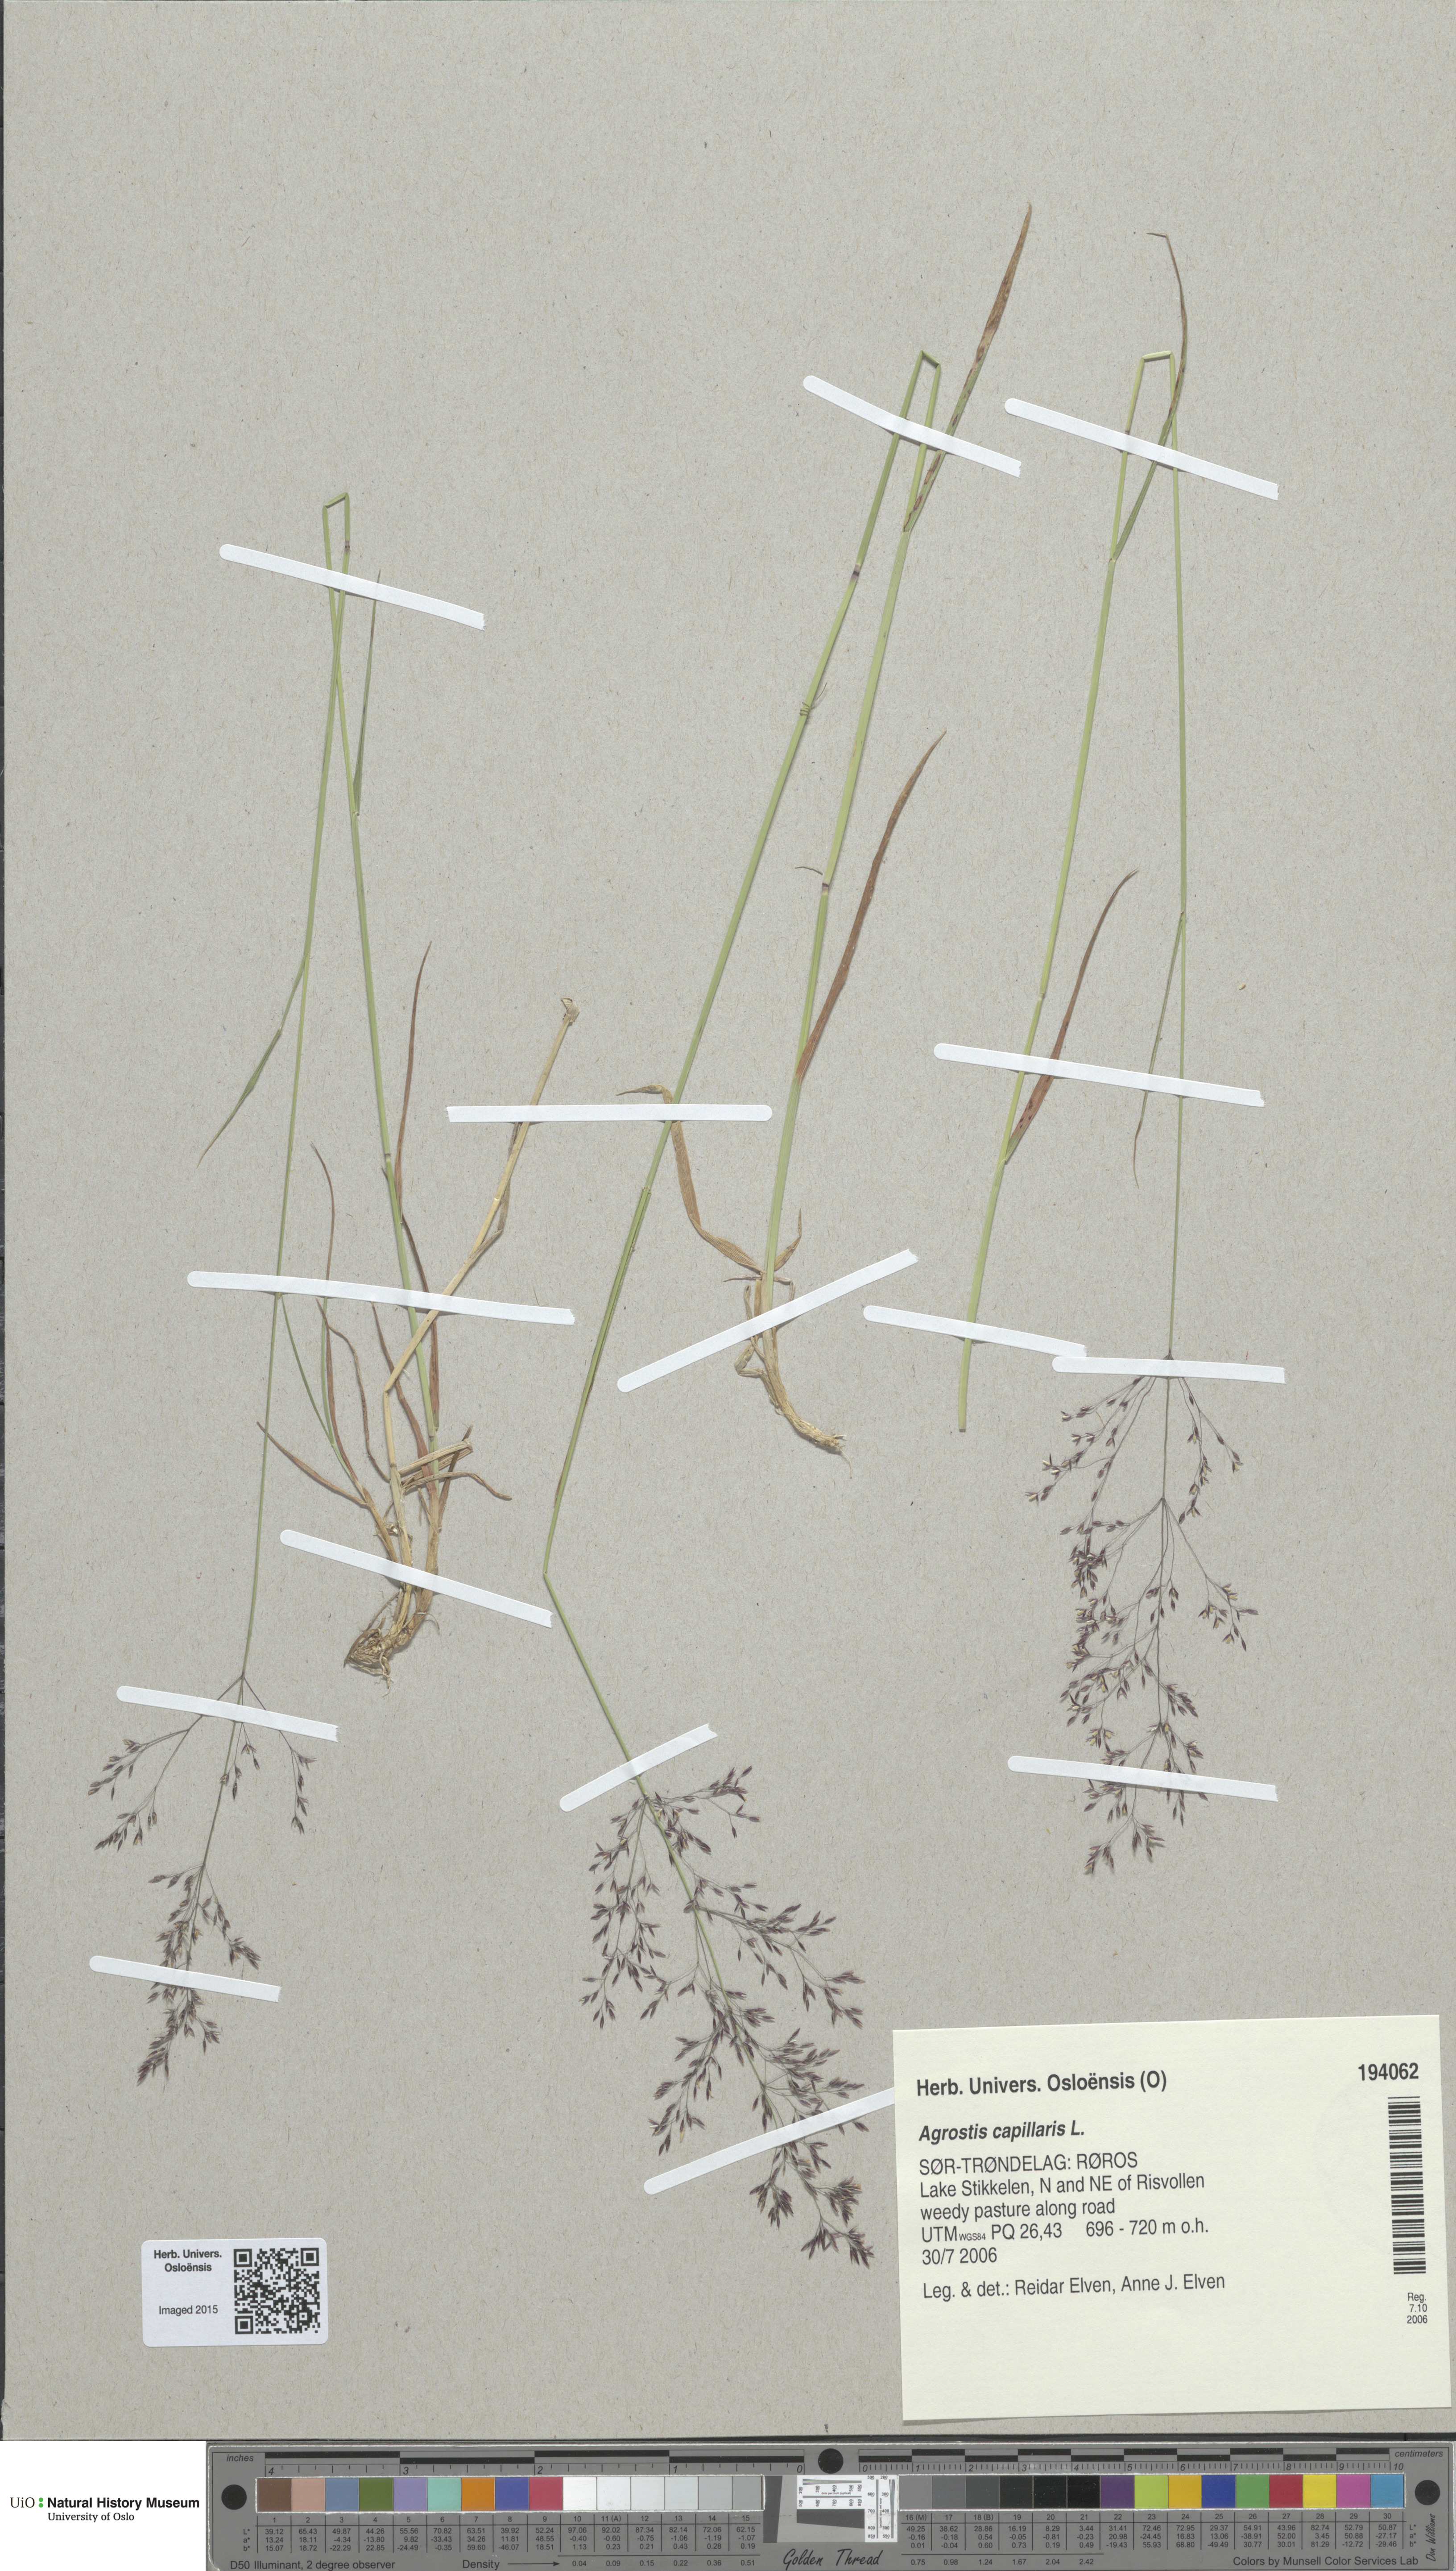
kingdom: Plantae
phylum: Tracheophyta
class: Liliopsida
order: Poales
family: Poaceae
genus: Agrostis
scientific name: Agrostis capillaris
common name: Colonial bentgrass
